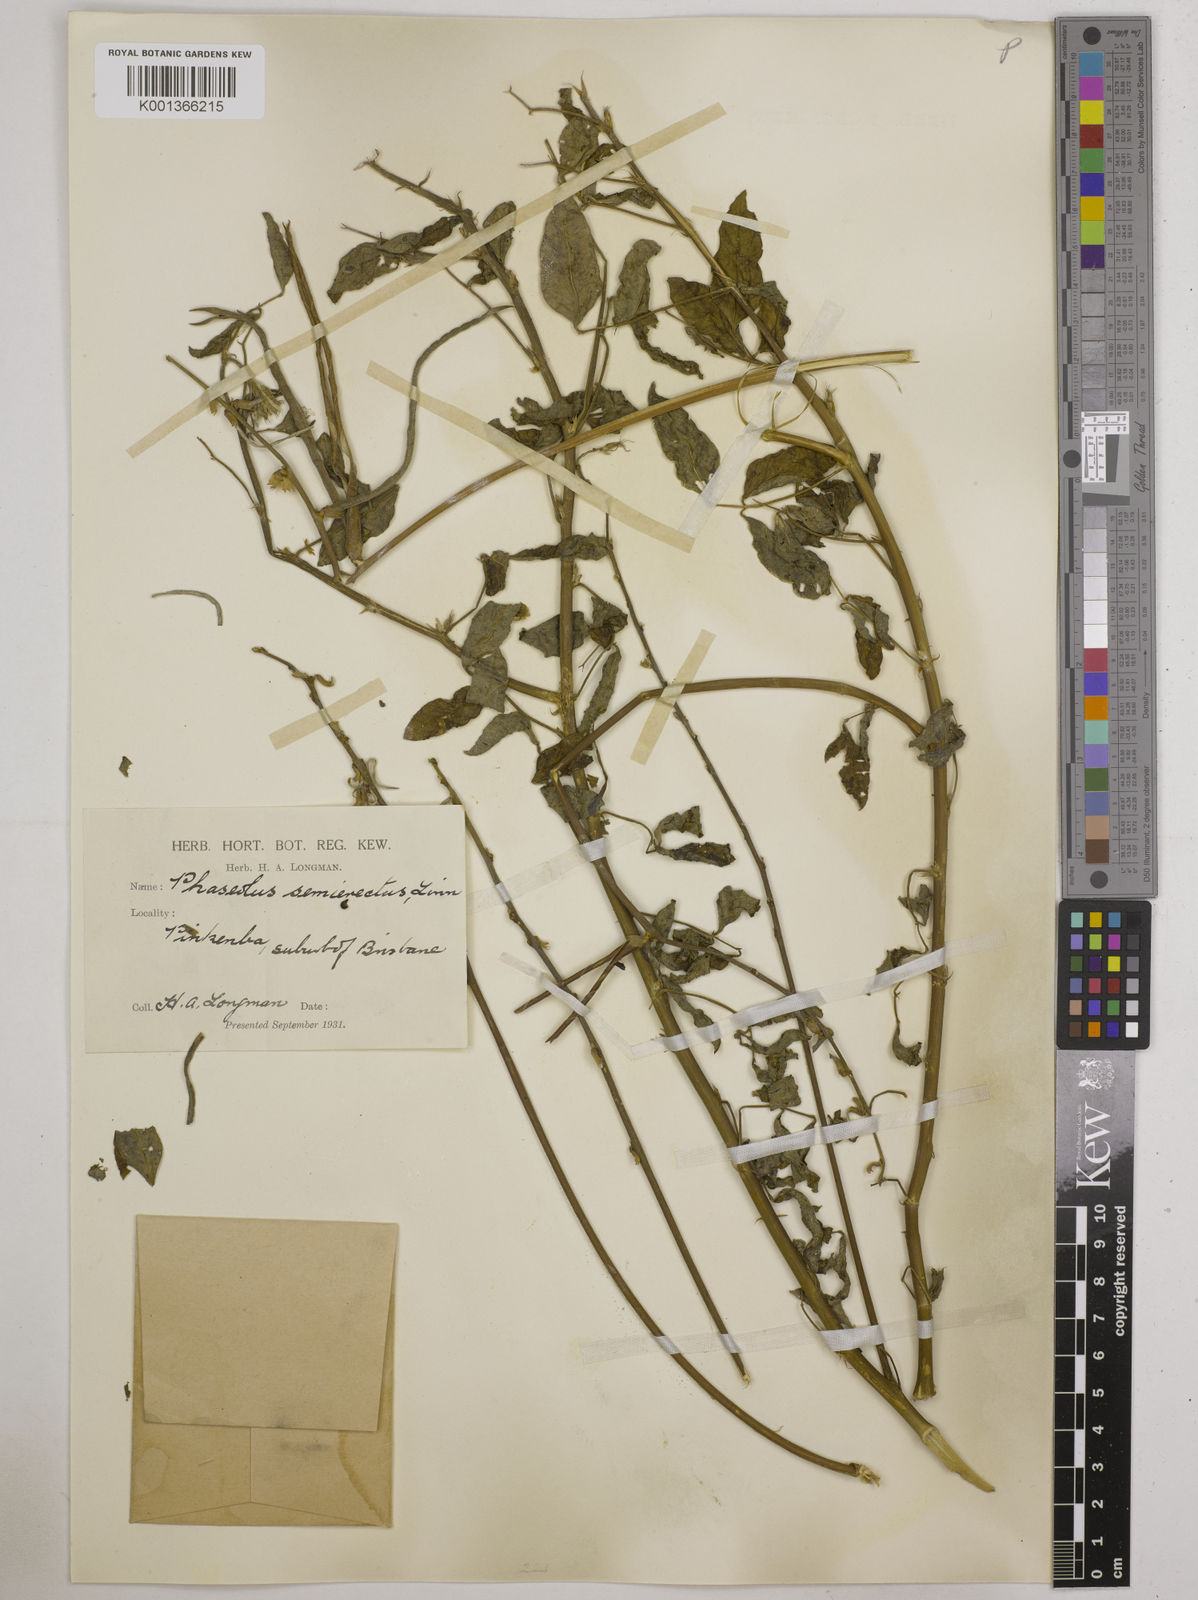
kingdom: Plantae
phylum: Tracheophyta
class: Magnoliopsida
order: Fabales
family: Fabaceae
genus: Macroptilium
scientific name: Macroptilium lathyroides
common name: Wild bushbean
